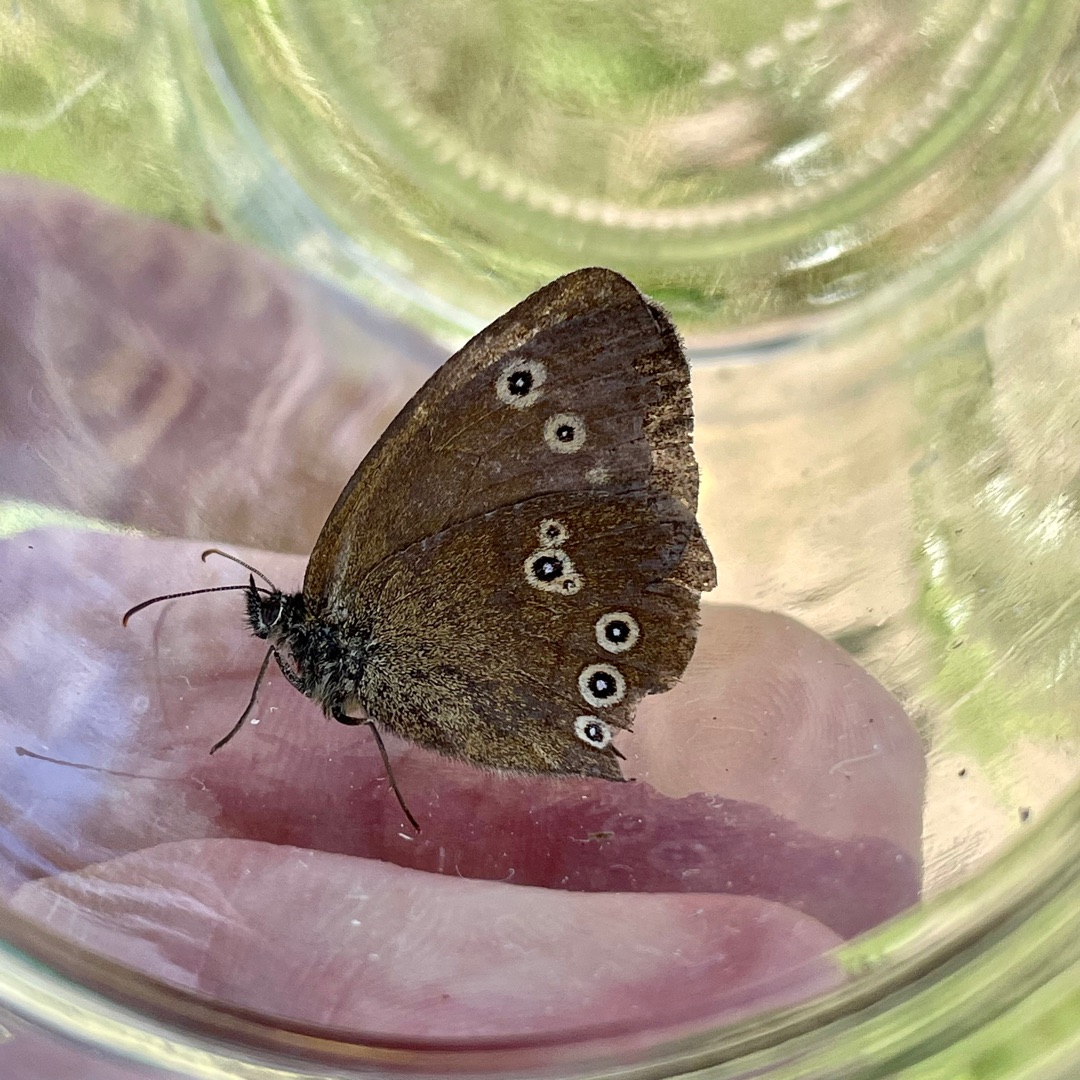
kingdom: Animalia
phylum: Arthropoda
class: Insecta
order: Lepidoptera
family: Nymphalidae
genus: Aphantopus
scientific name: Aphantopus hyperantus
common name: Engrandøje
